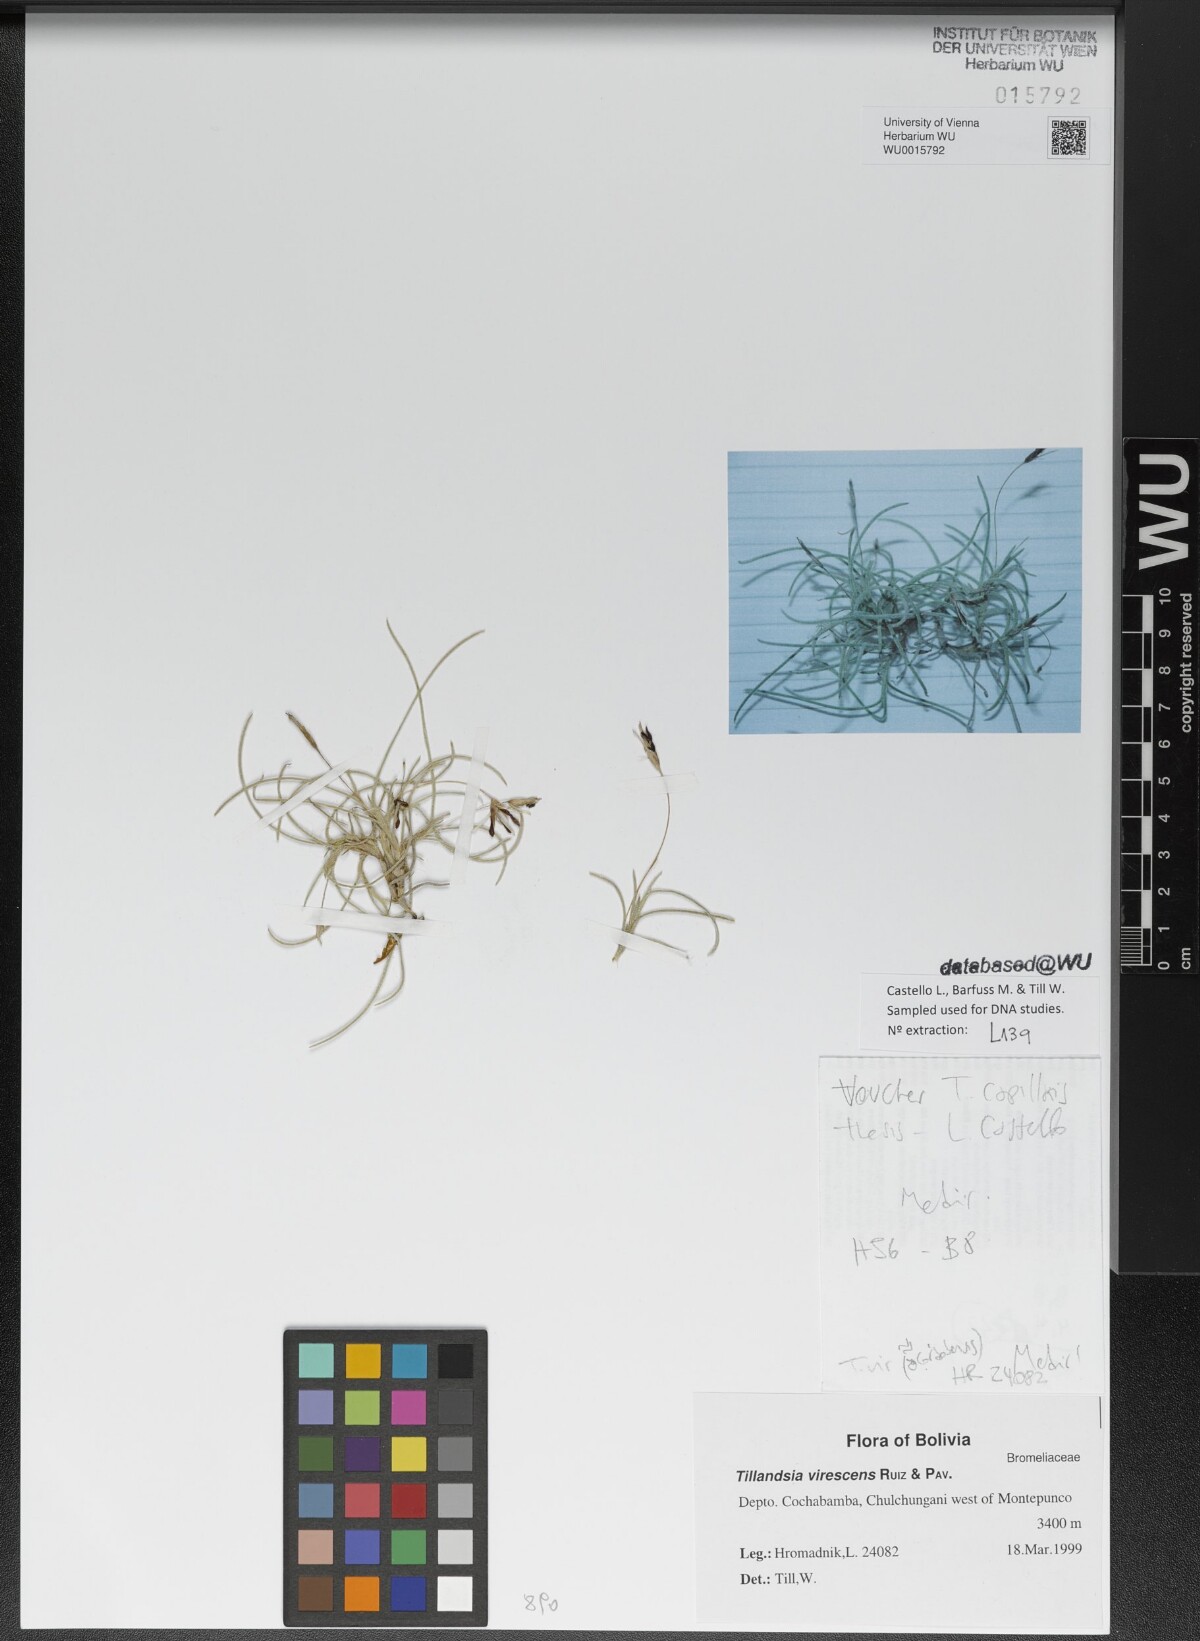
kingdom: Plantae
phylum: Tracheophyta
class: Liliopsida
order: Poales
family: Bromeliaceae
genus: Tillandsia
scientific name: Tillandsia virescens
